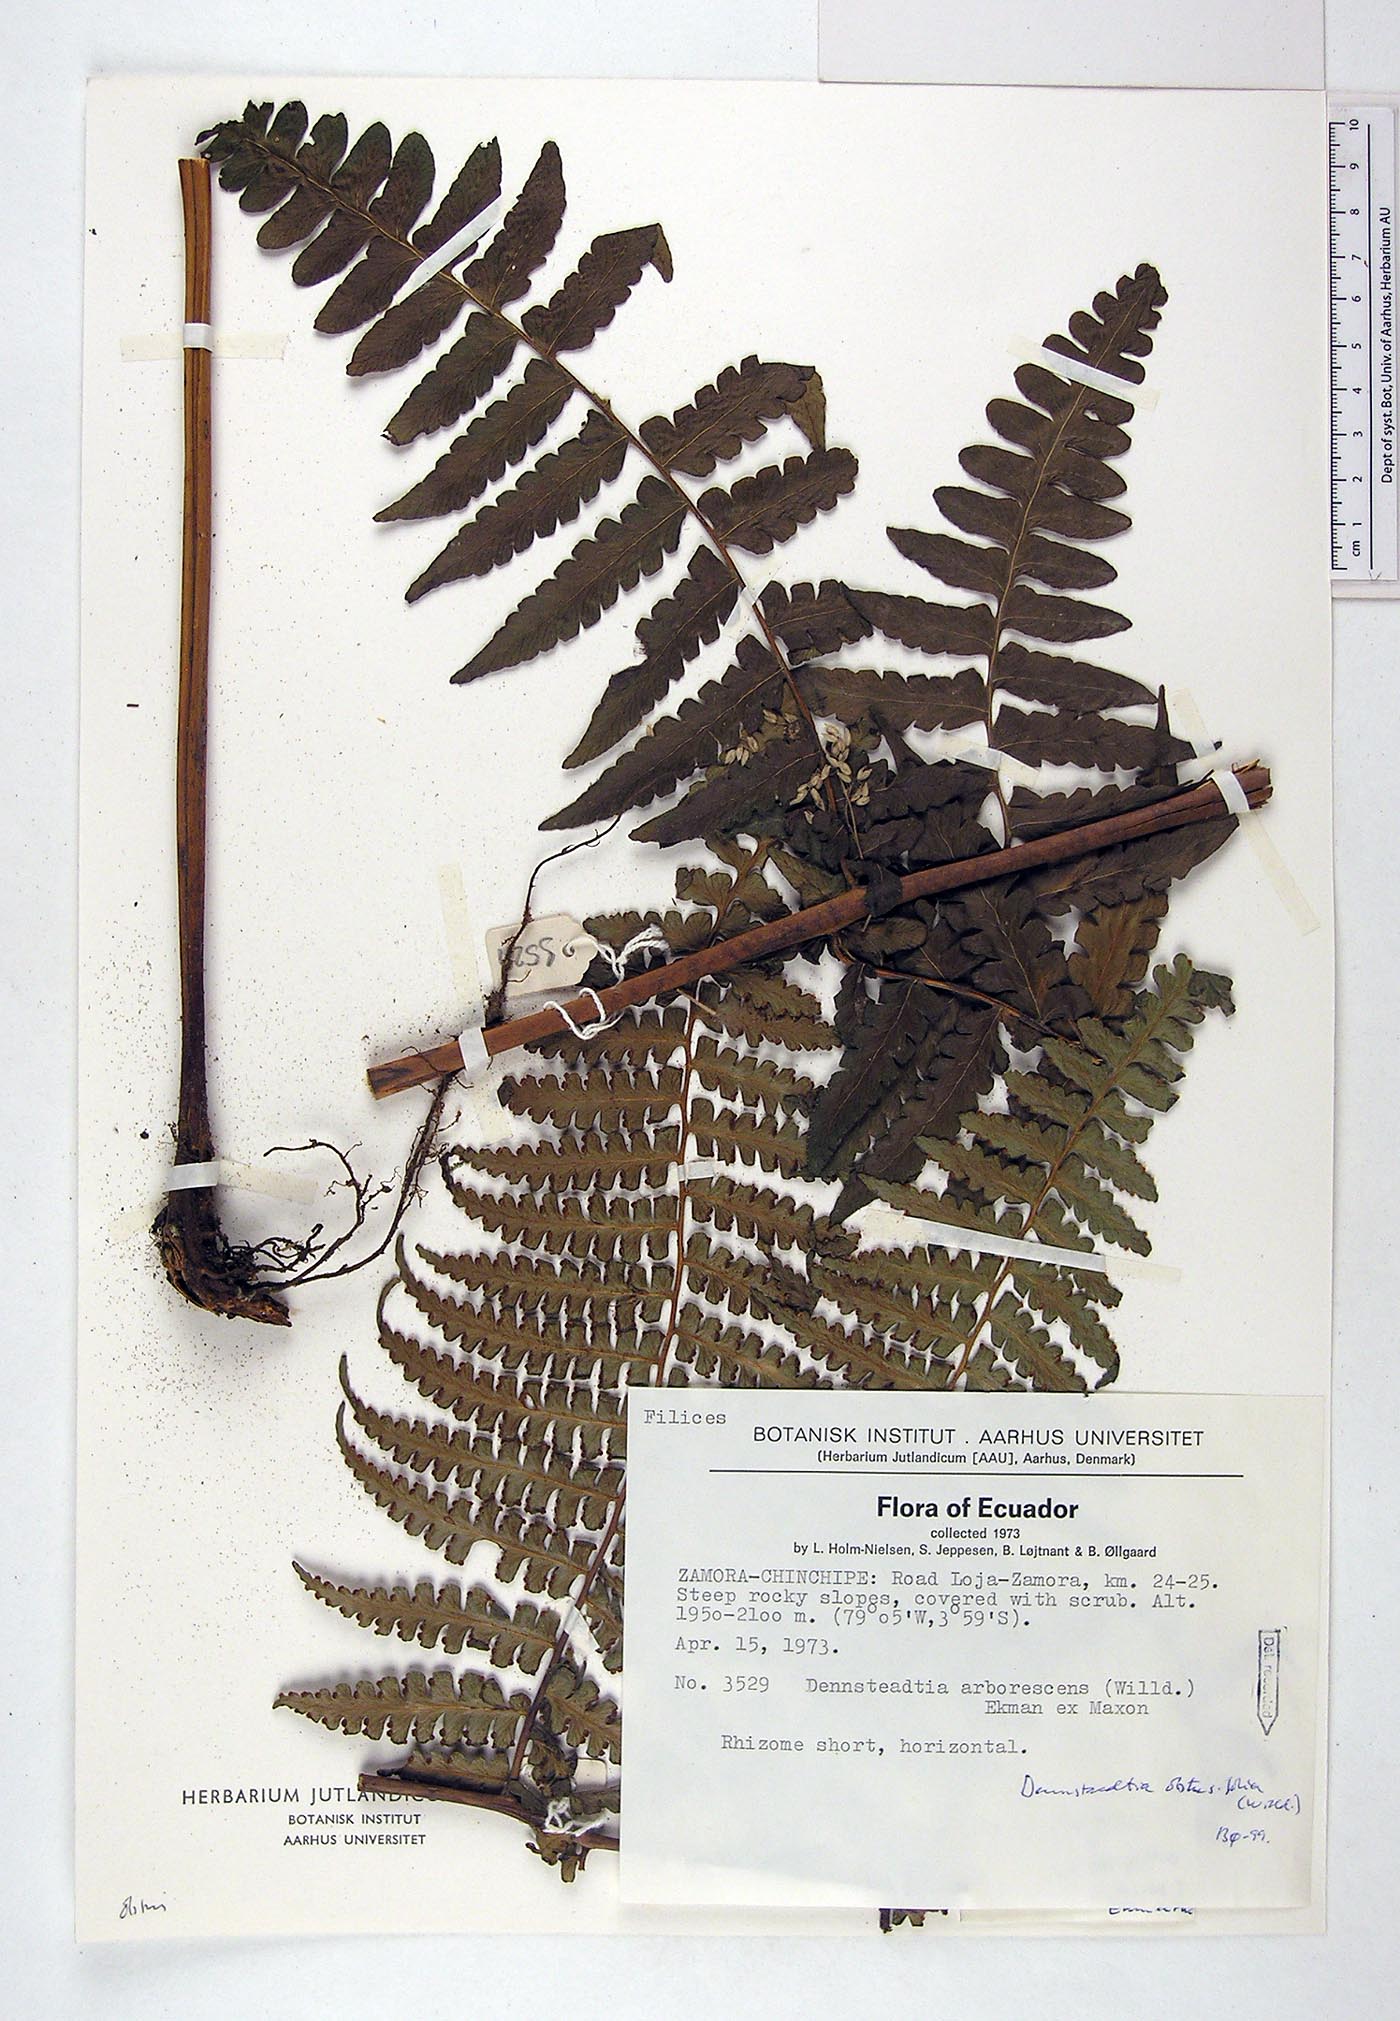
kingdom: Plantae
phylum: Tracheophyta
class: Polypodiopsida
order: Polypodiales
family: Dennstaedtiaceae
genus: Dennstaedtia
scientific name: Dennstaedtia obtusifolia
